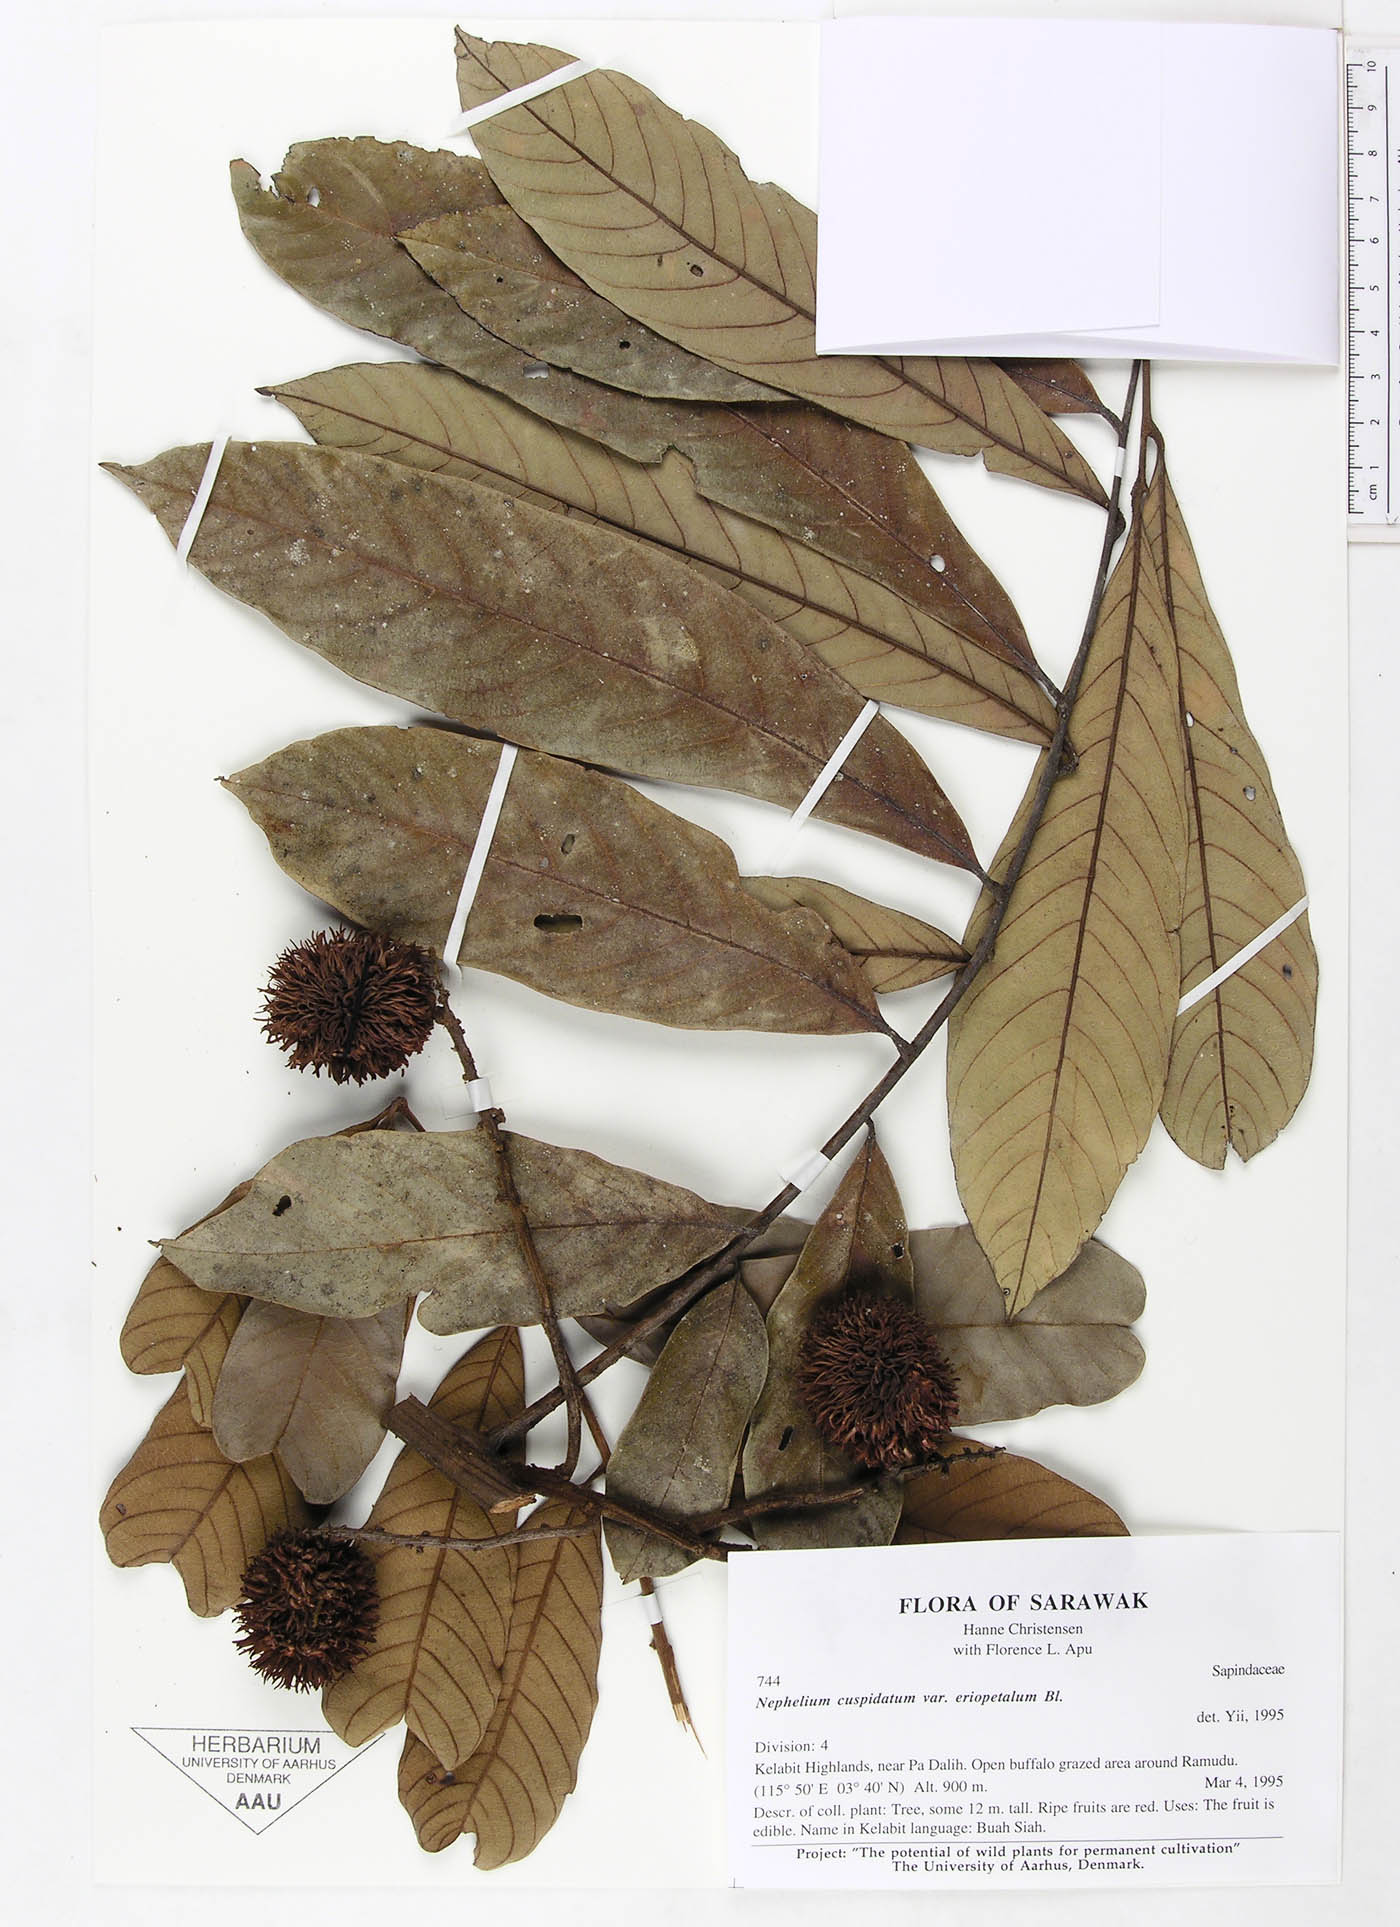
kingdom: Plantae
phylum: Tracheophyta
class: Magnoliopsida
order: Sapindales
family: Sapindaceae
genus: Nephelium
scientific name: Nephelium cuspidatum
